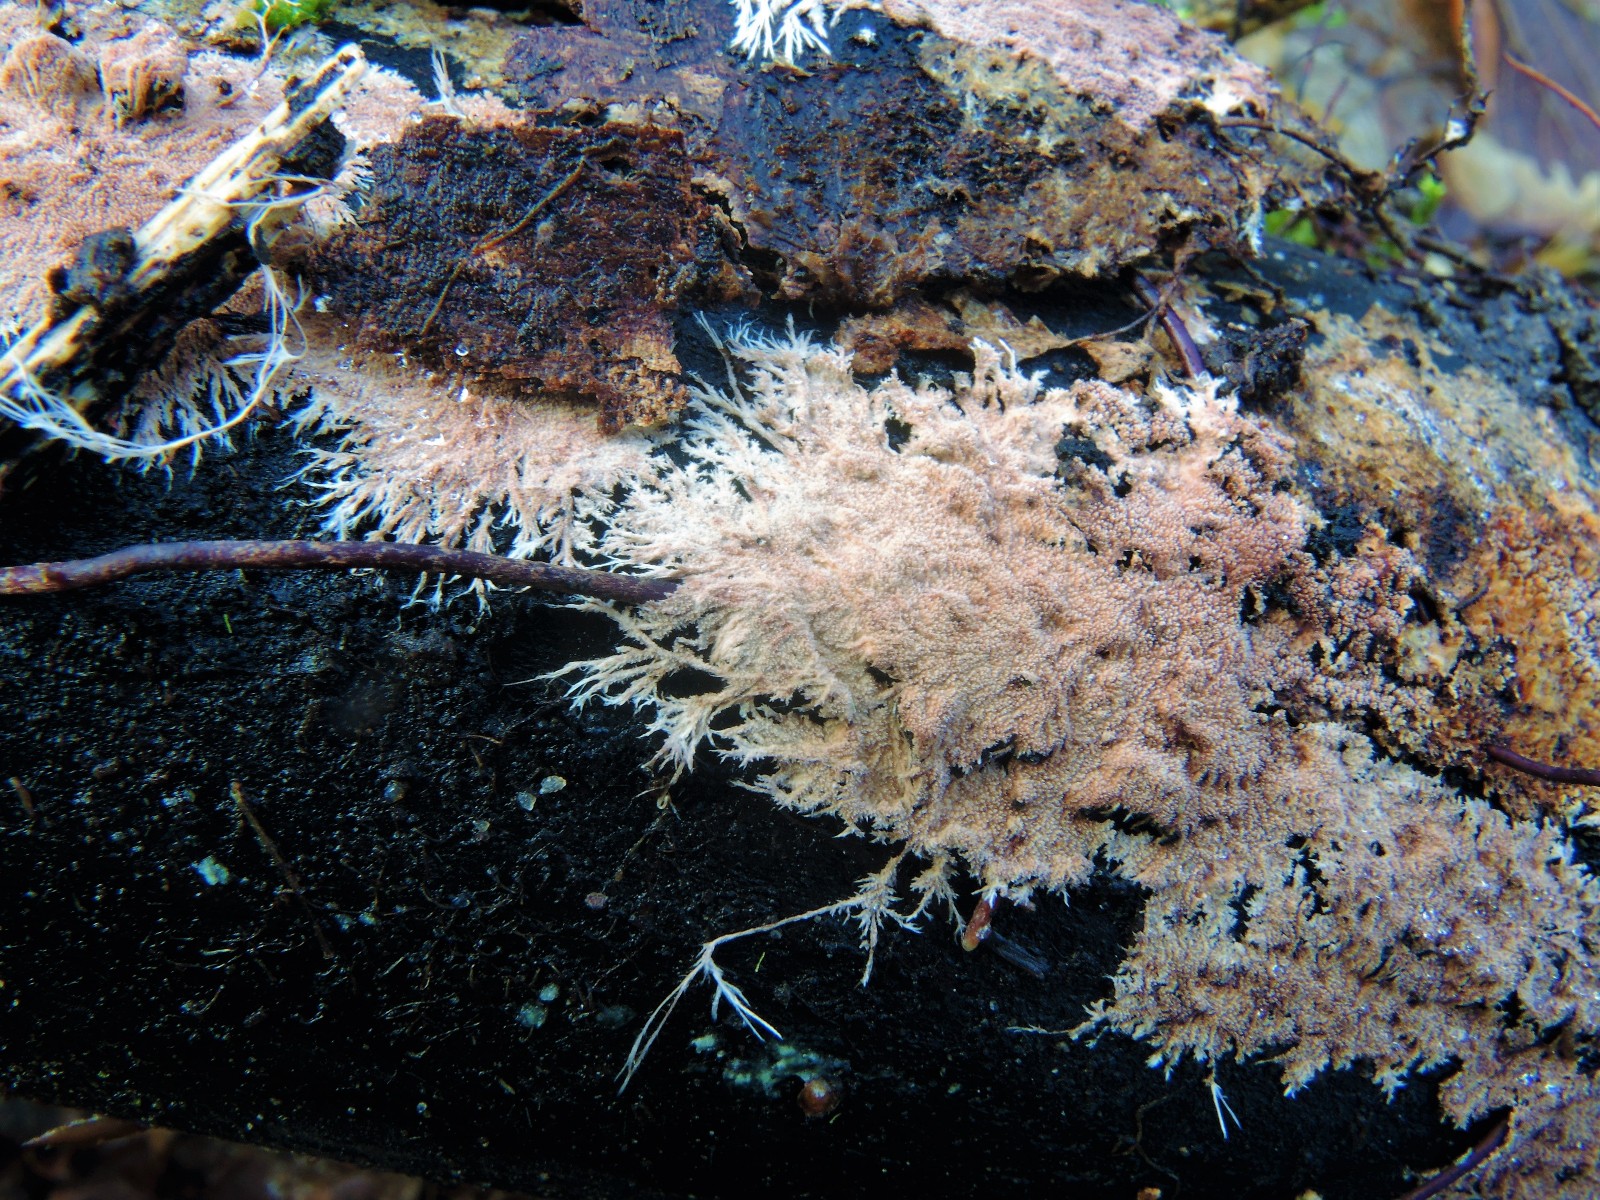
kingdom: Fungi
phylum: Basidiomycota
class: Agaricomycetes
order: Polyporales
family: Steccherinaceae
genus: Steccherinum
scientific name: Steccherinum fimbriatum
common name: trådet skønpig
